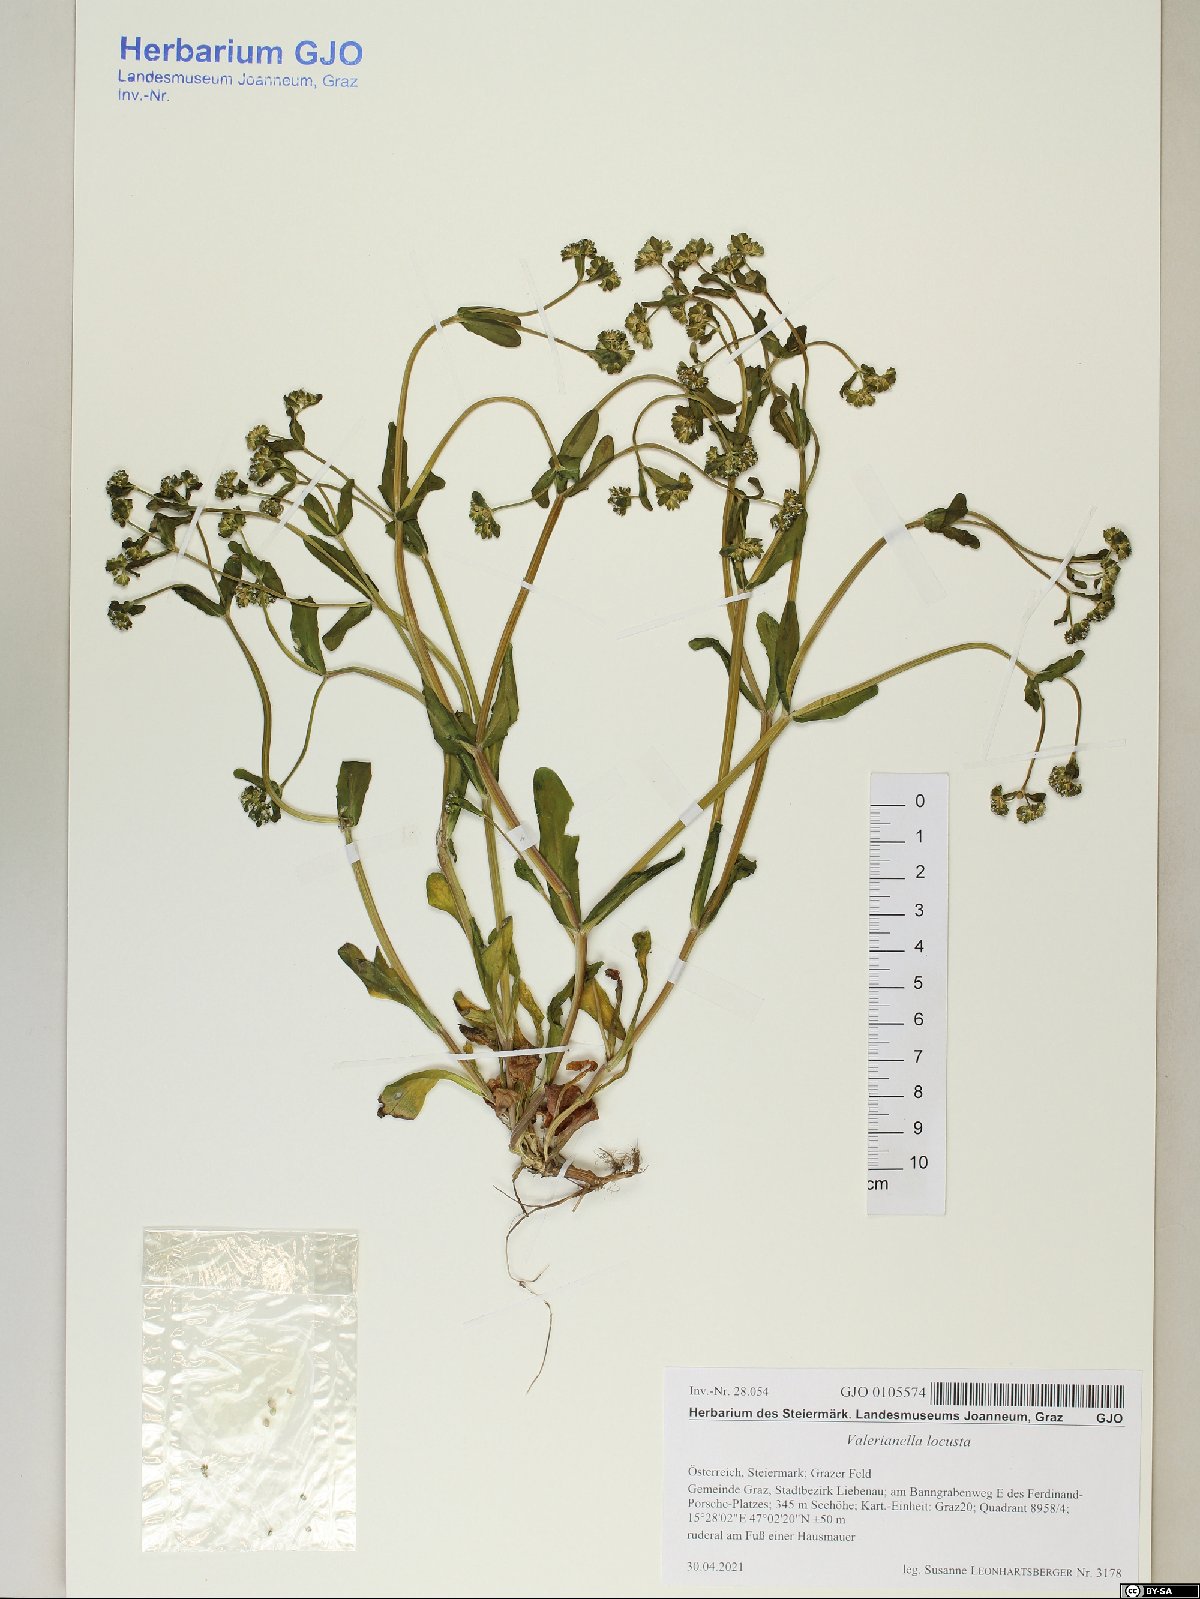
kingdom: Plantae
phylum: Tracheophyta
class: Magnoliopsida
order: Dipsacales
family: Caprifoliaceae
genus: Valerianella
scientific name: Valerianella locusta
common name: Common cornsalad
